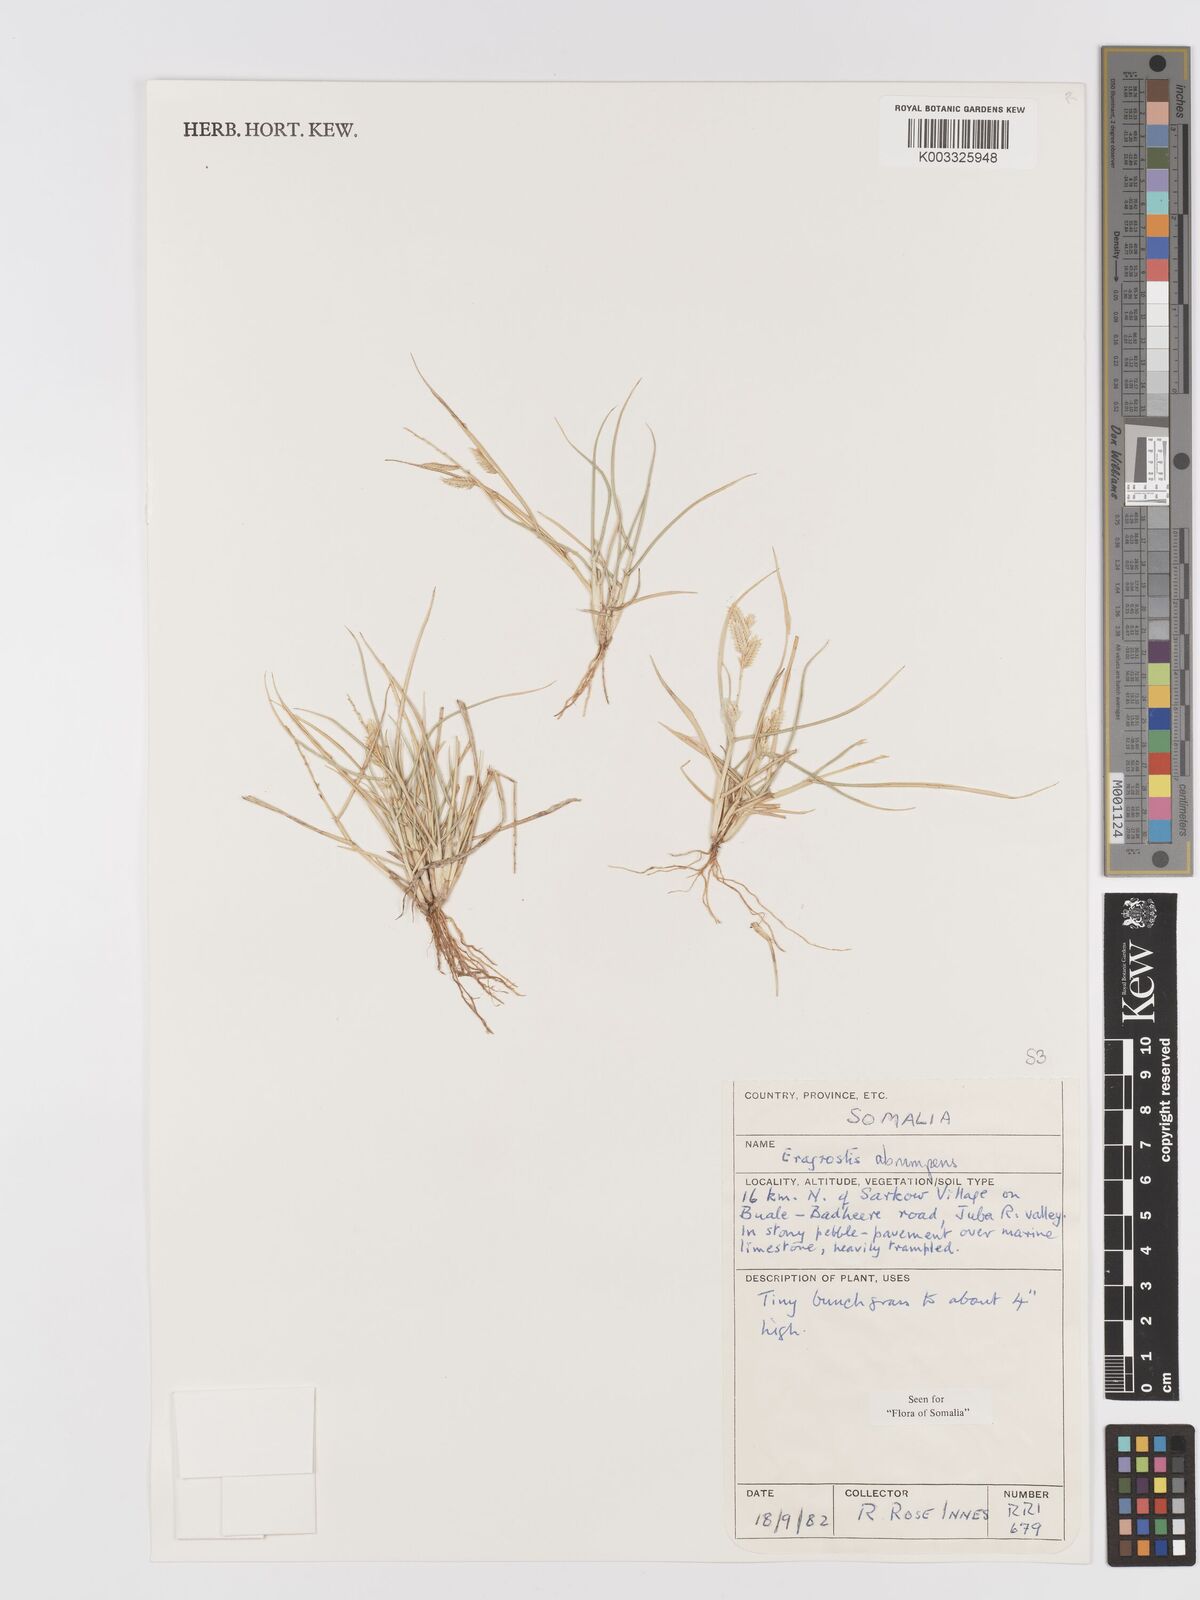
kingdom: Plantae
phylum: Tracheophyta
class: Liliopsida
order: Poales
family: Poaceae
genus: Eragrostis
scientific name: Eragrostis sennii
